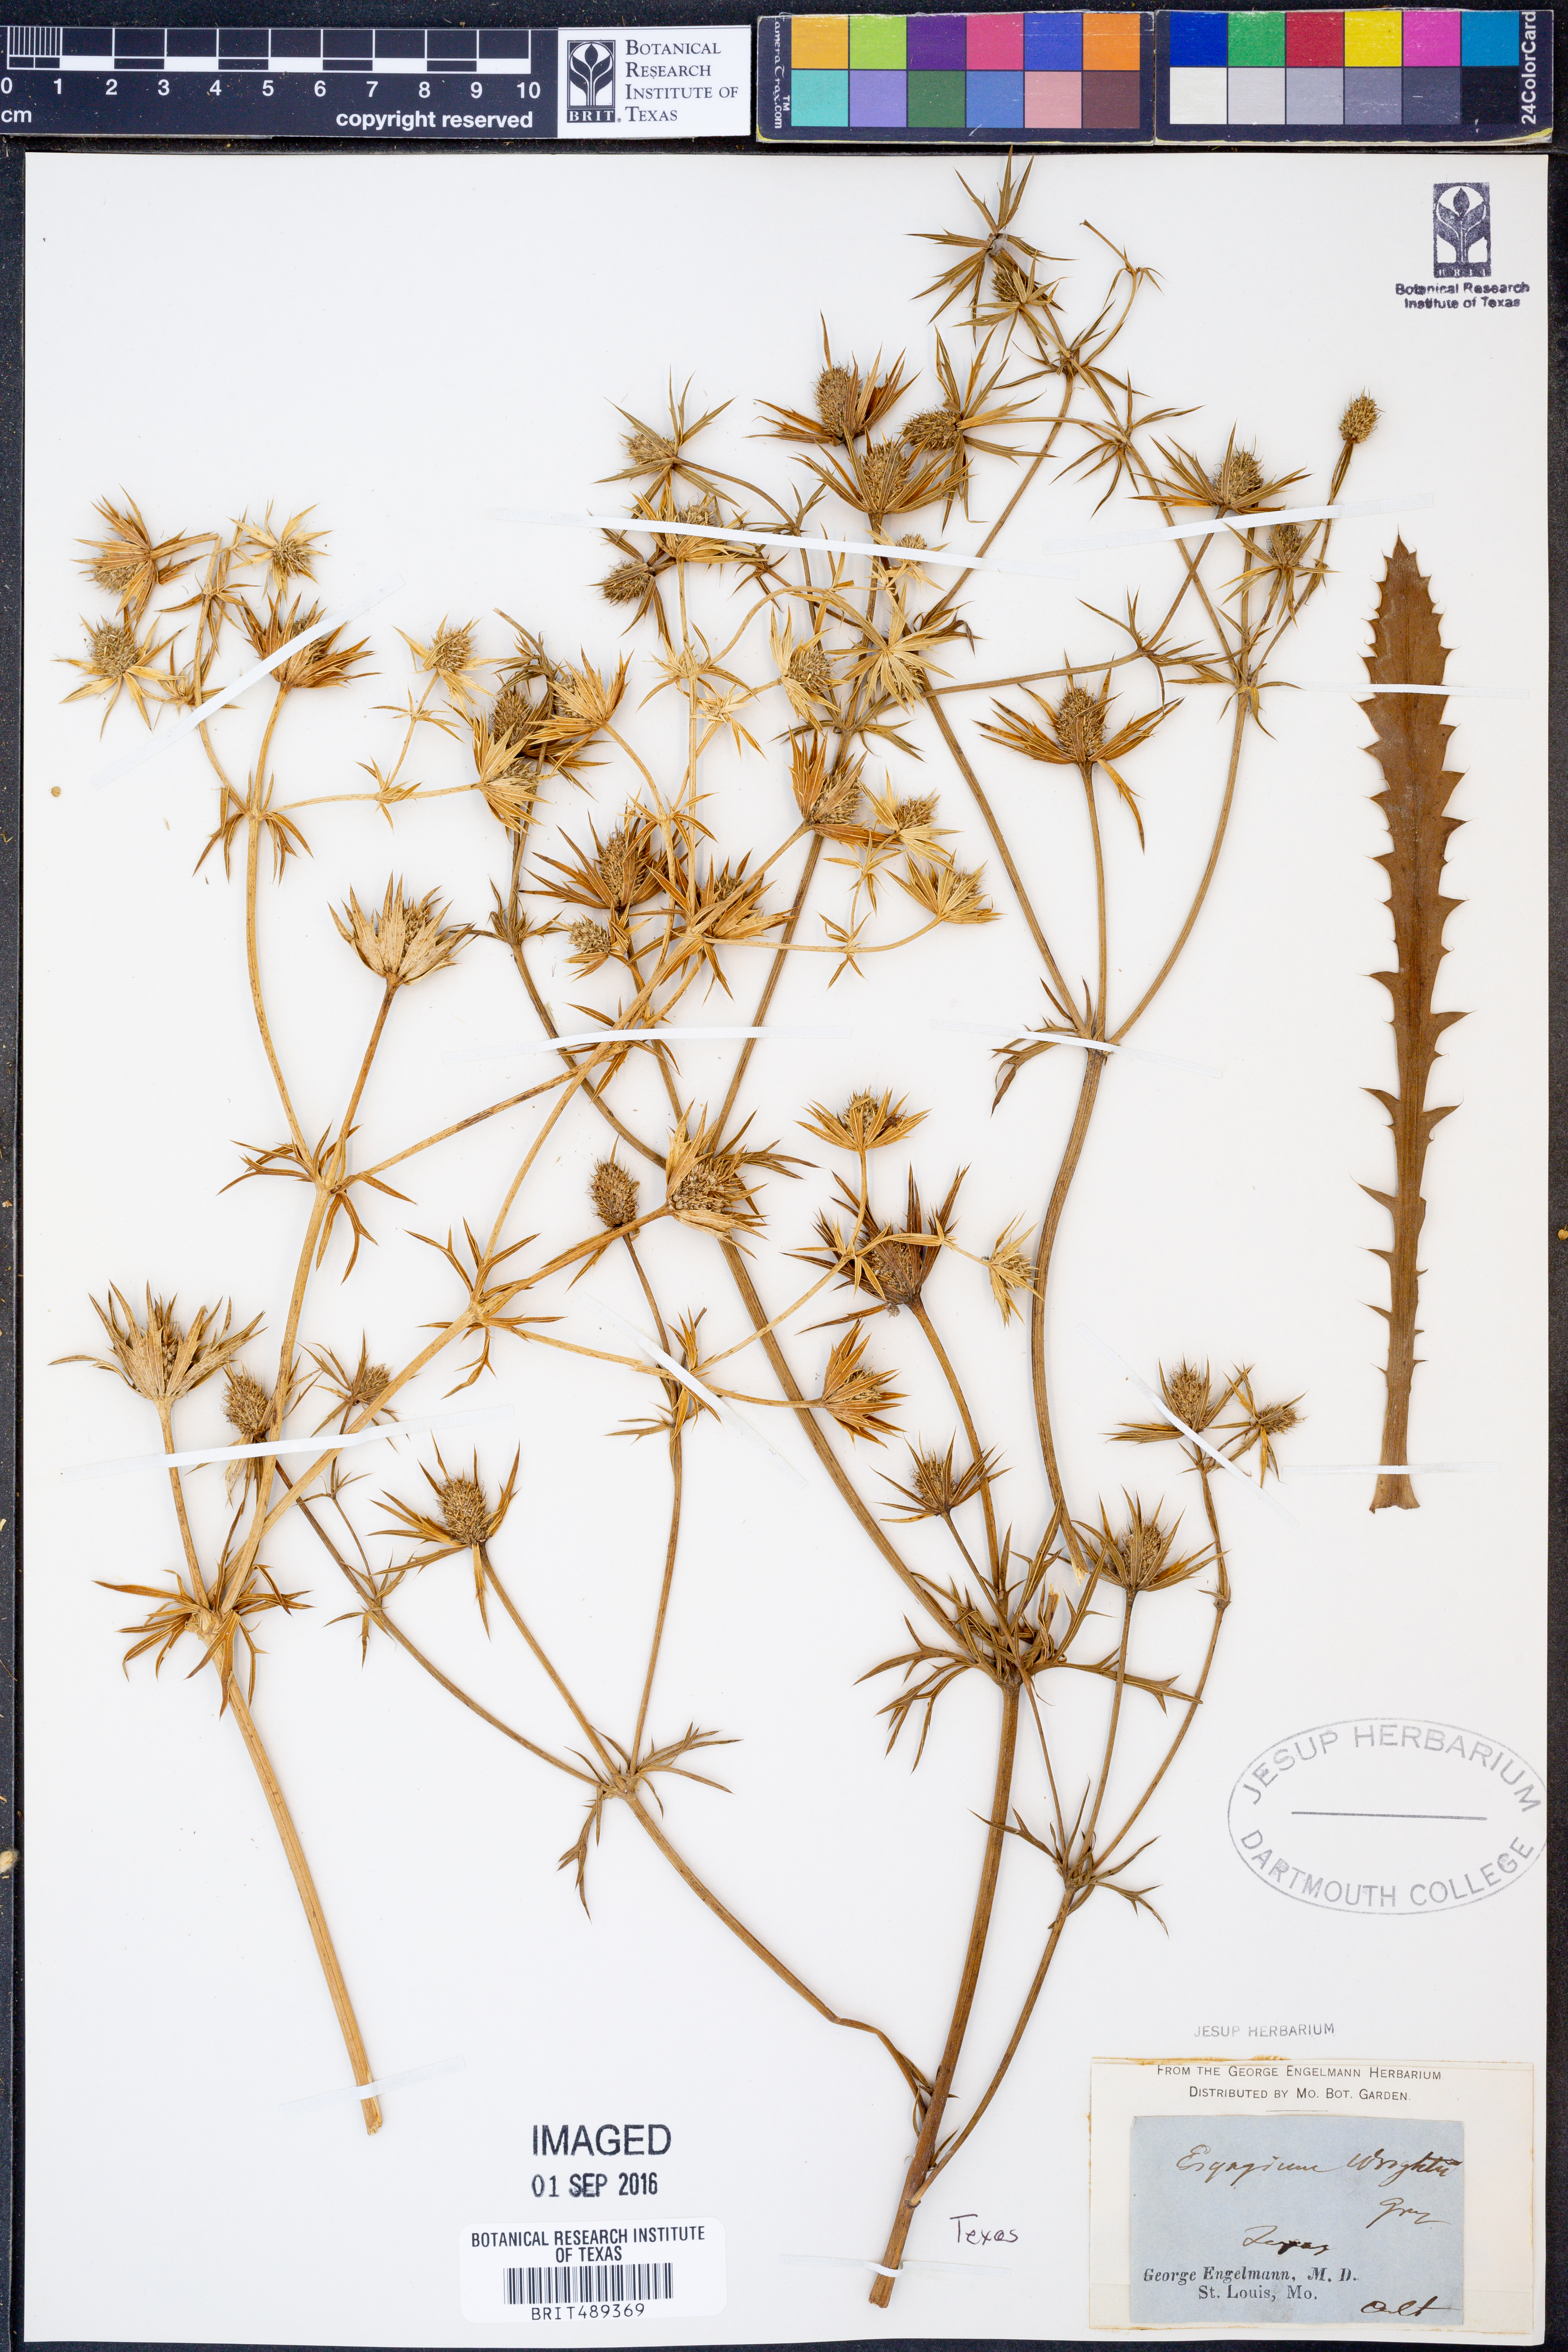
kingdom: Plantae
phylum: Tracheophyta
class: Magnoliopsida
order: Apiales
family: Apiaceae
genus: Eryngium
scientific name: Eryngium heterophyllum
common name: Mexican thistle
